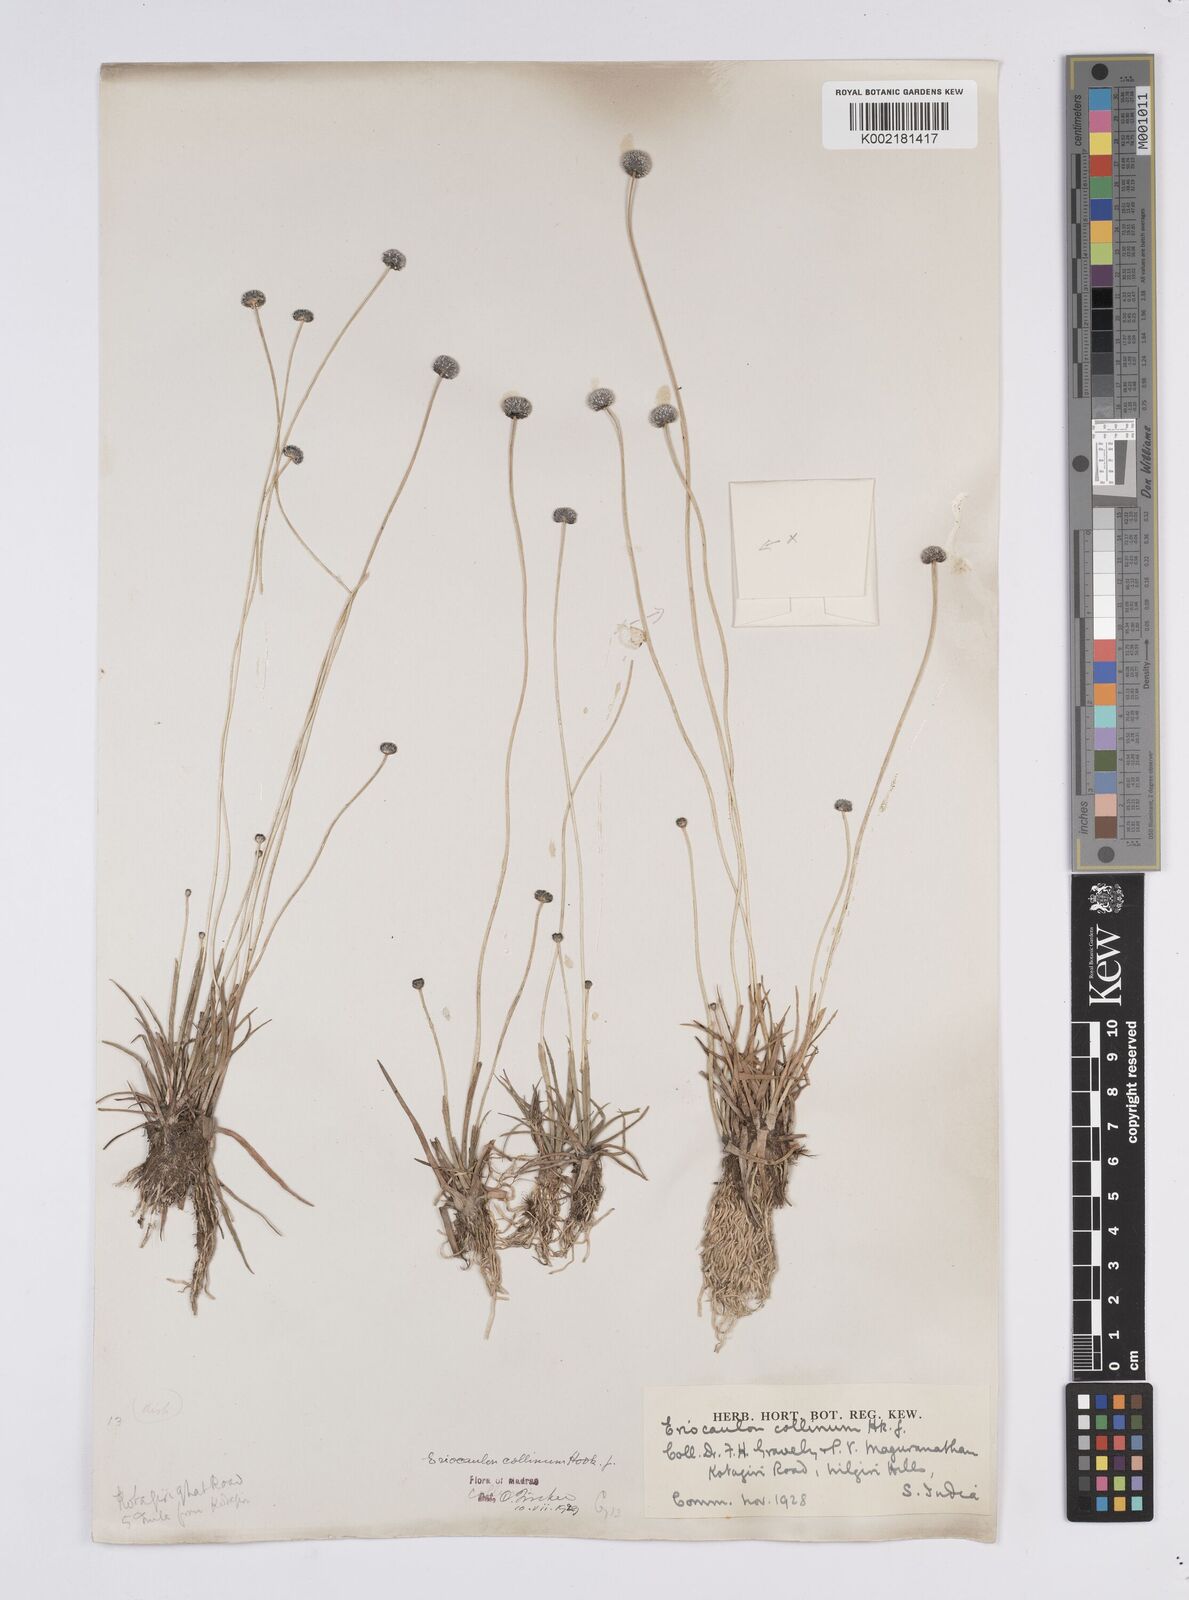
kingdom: Plantae
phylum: Tracheophyta
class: Liliopsida
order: Poales
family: Eriocaulaceae
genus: Eriocaulon
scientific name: Eriocaulon odoratum
